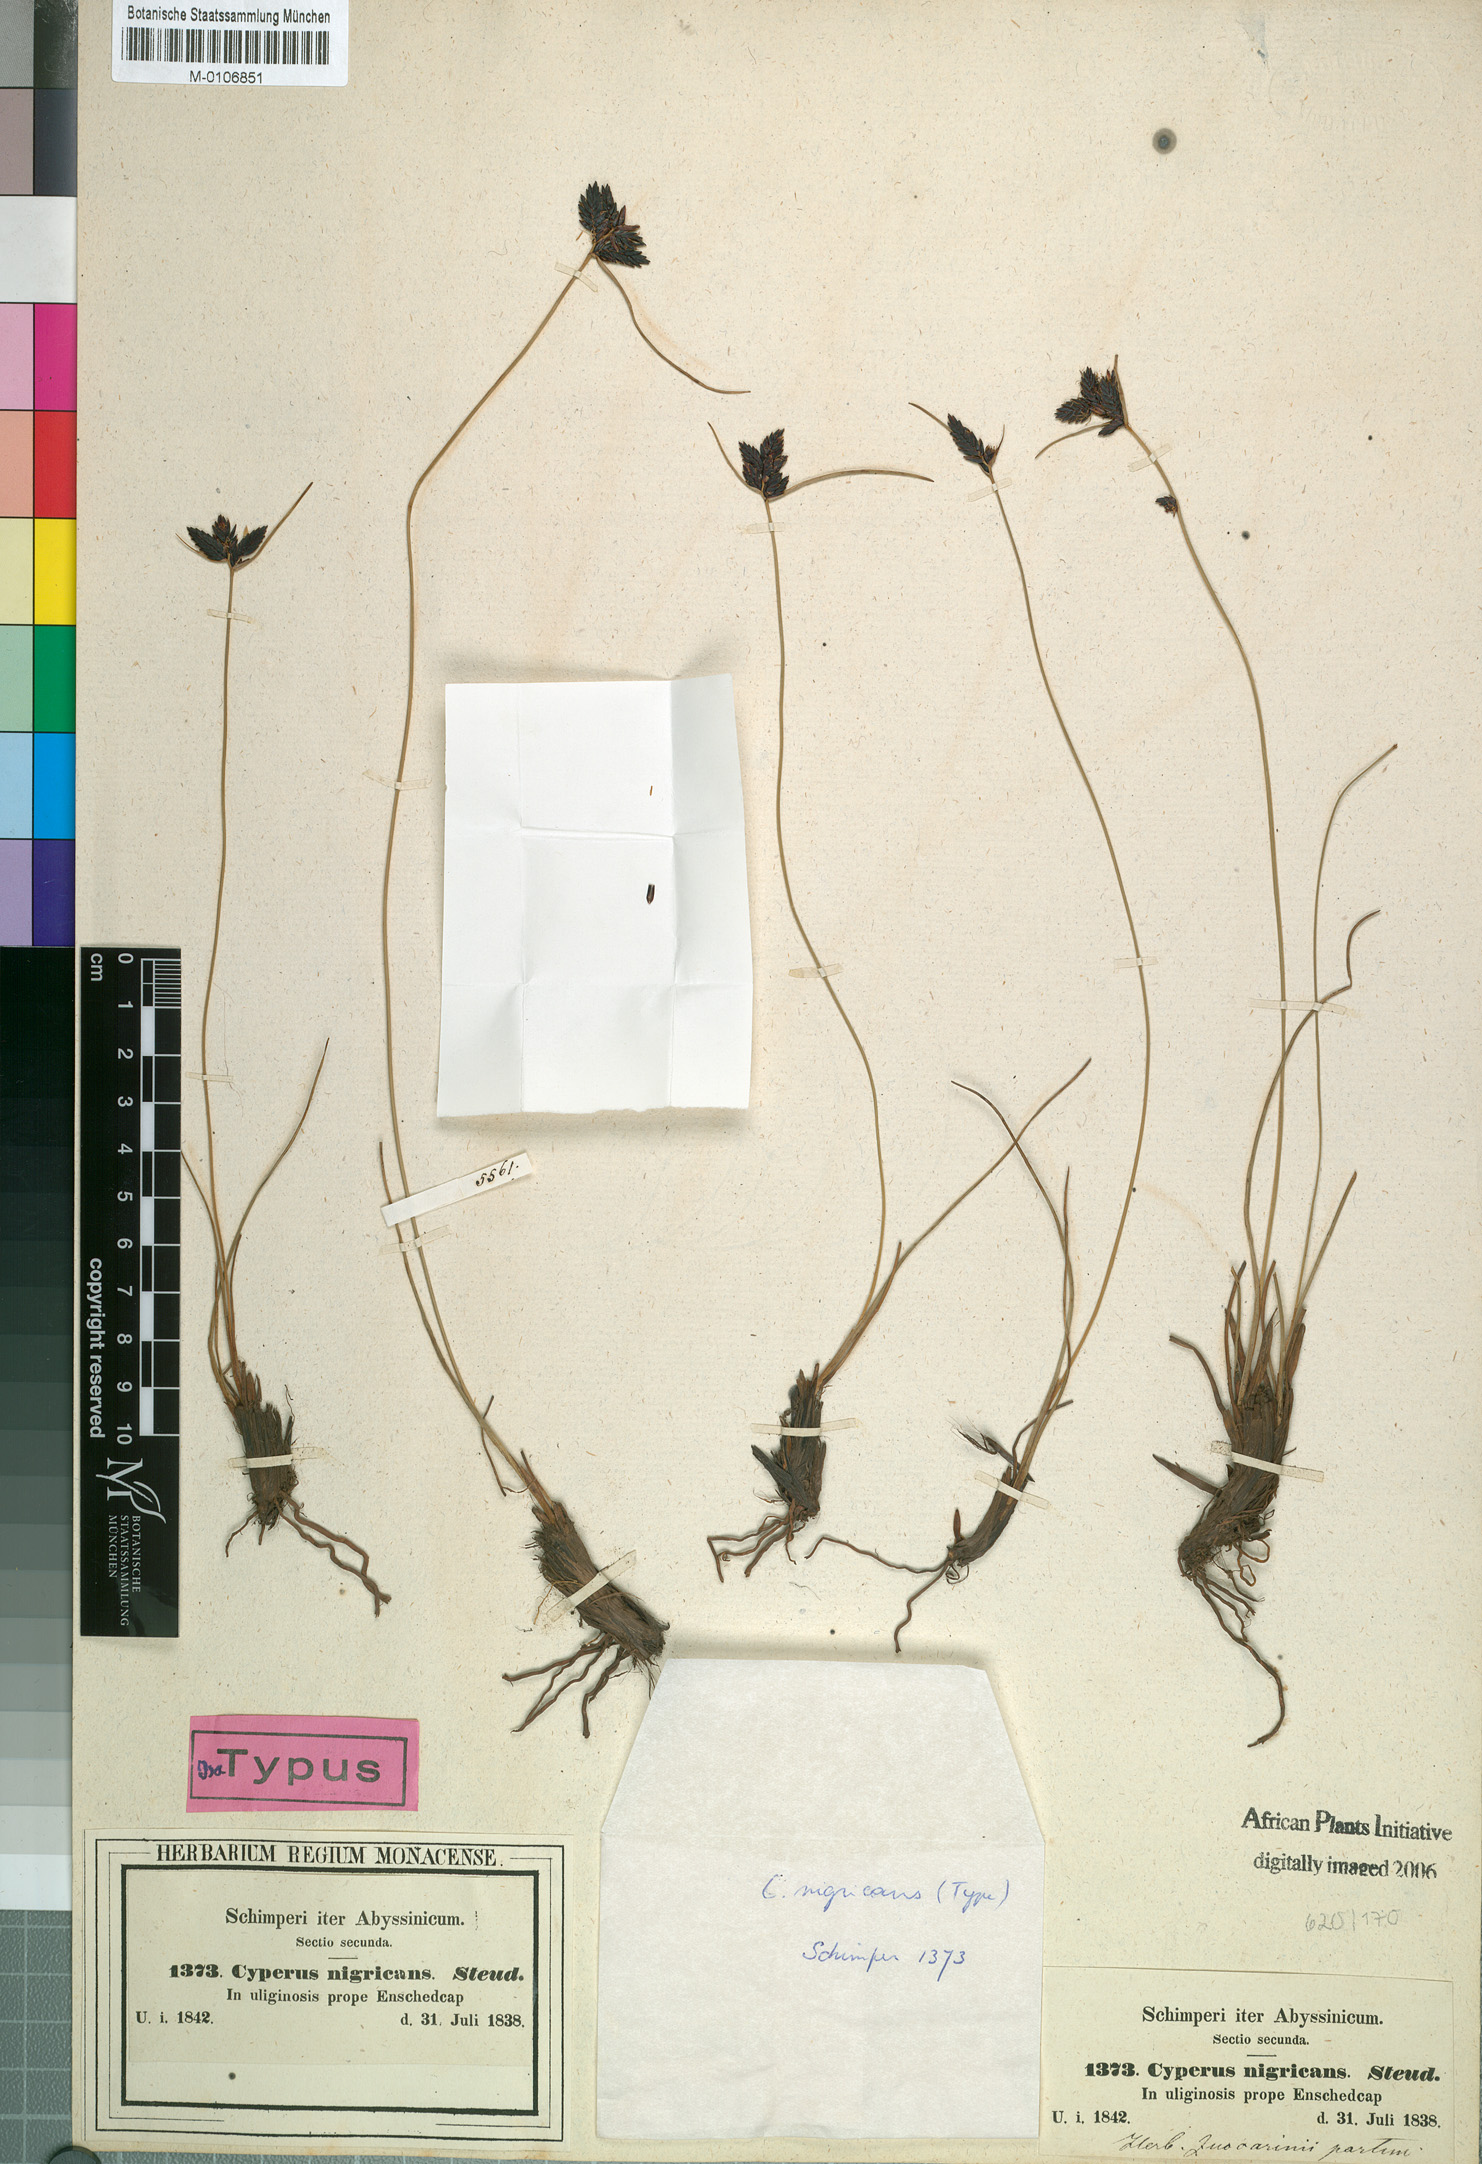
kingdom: Plantae
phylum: Tracheophyta
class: Liliopsida
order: Poales
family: Cyperaceae
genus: Cyperus
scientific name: Cyperus nigricans
